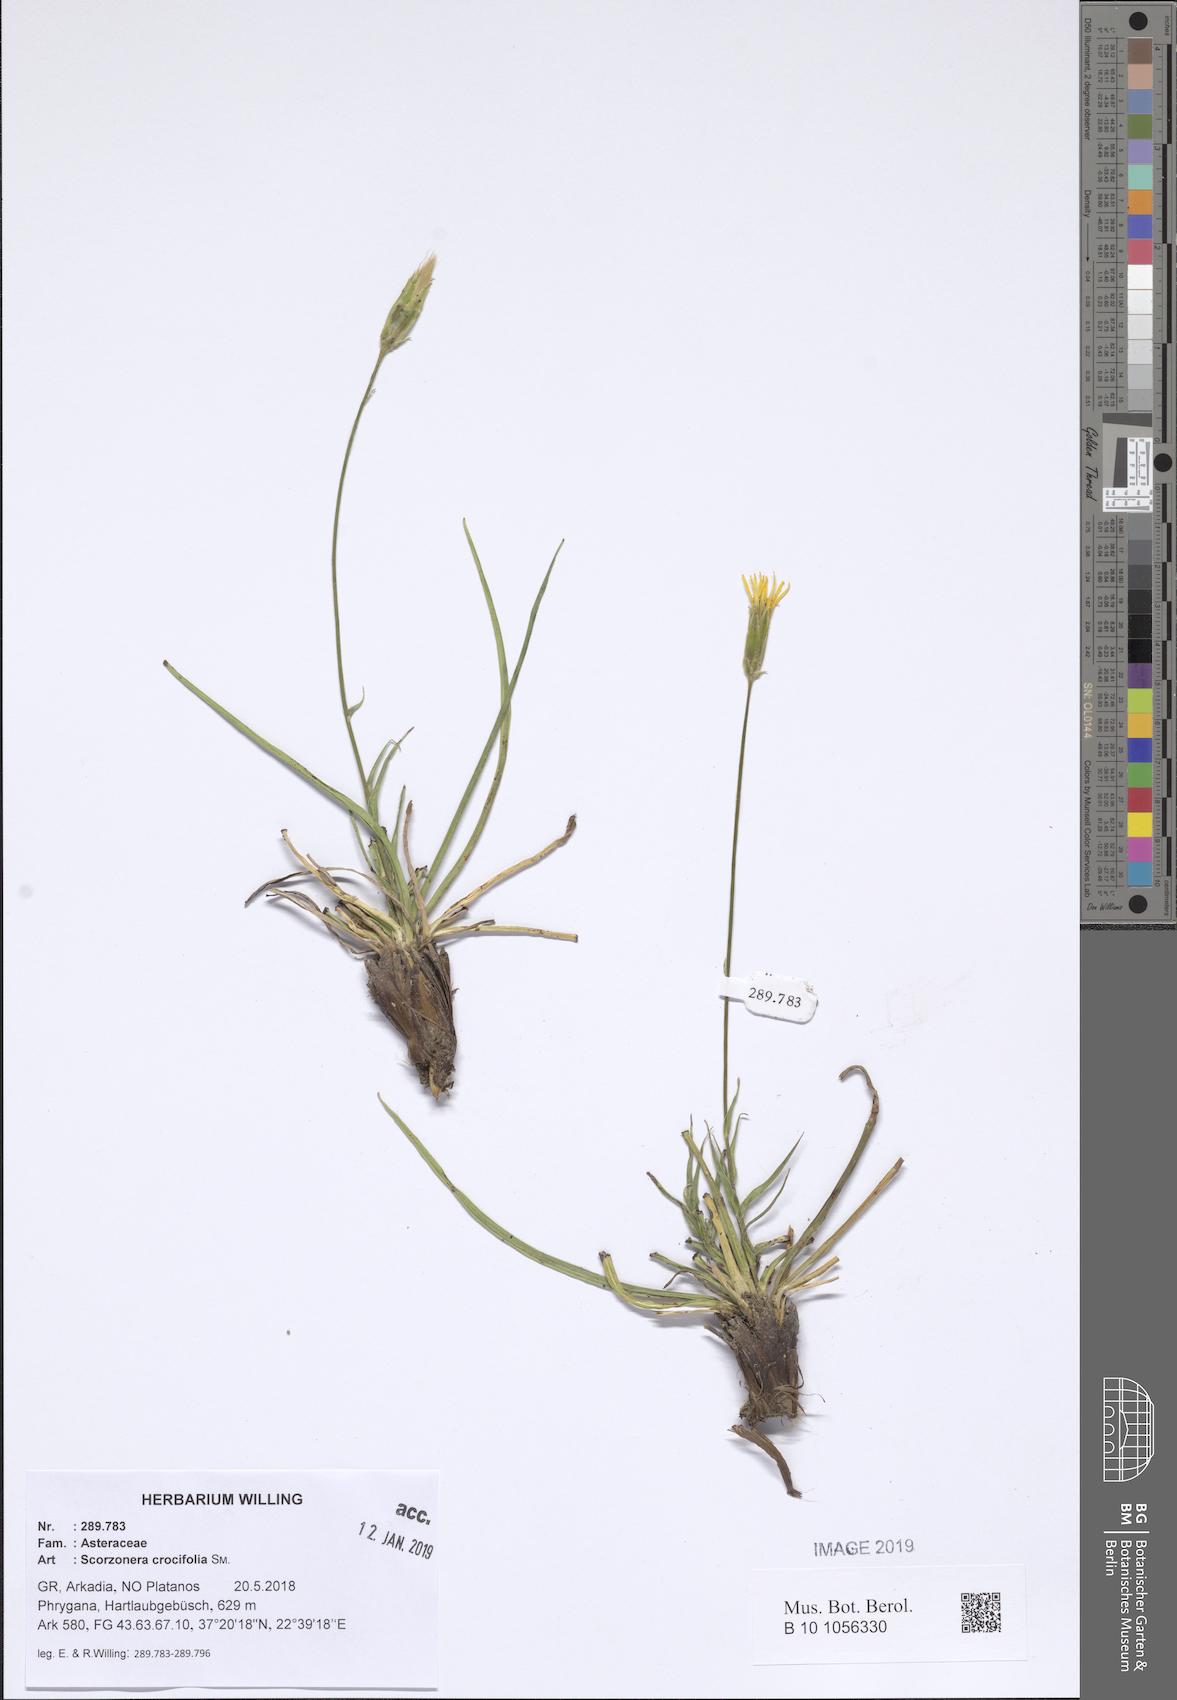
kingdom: Plantae
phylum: Tracheophyta
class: Magnoliopsida
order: Asterales
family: Asteraceae
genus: Pseudopodospermum
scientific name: Pseudopodospermum crocifolium
